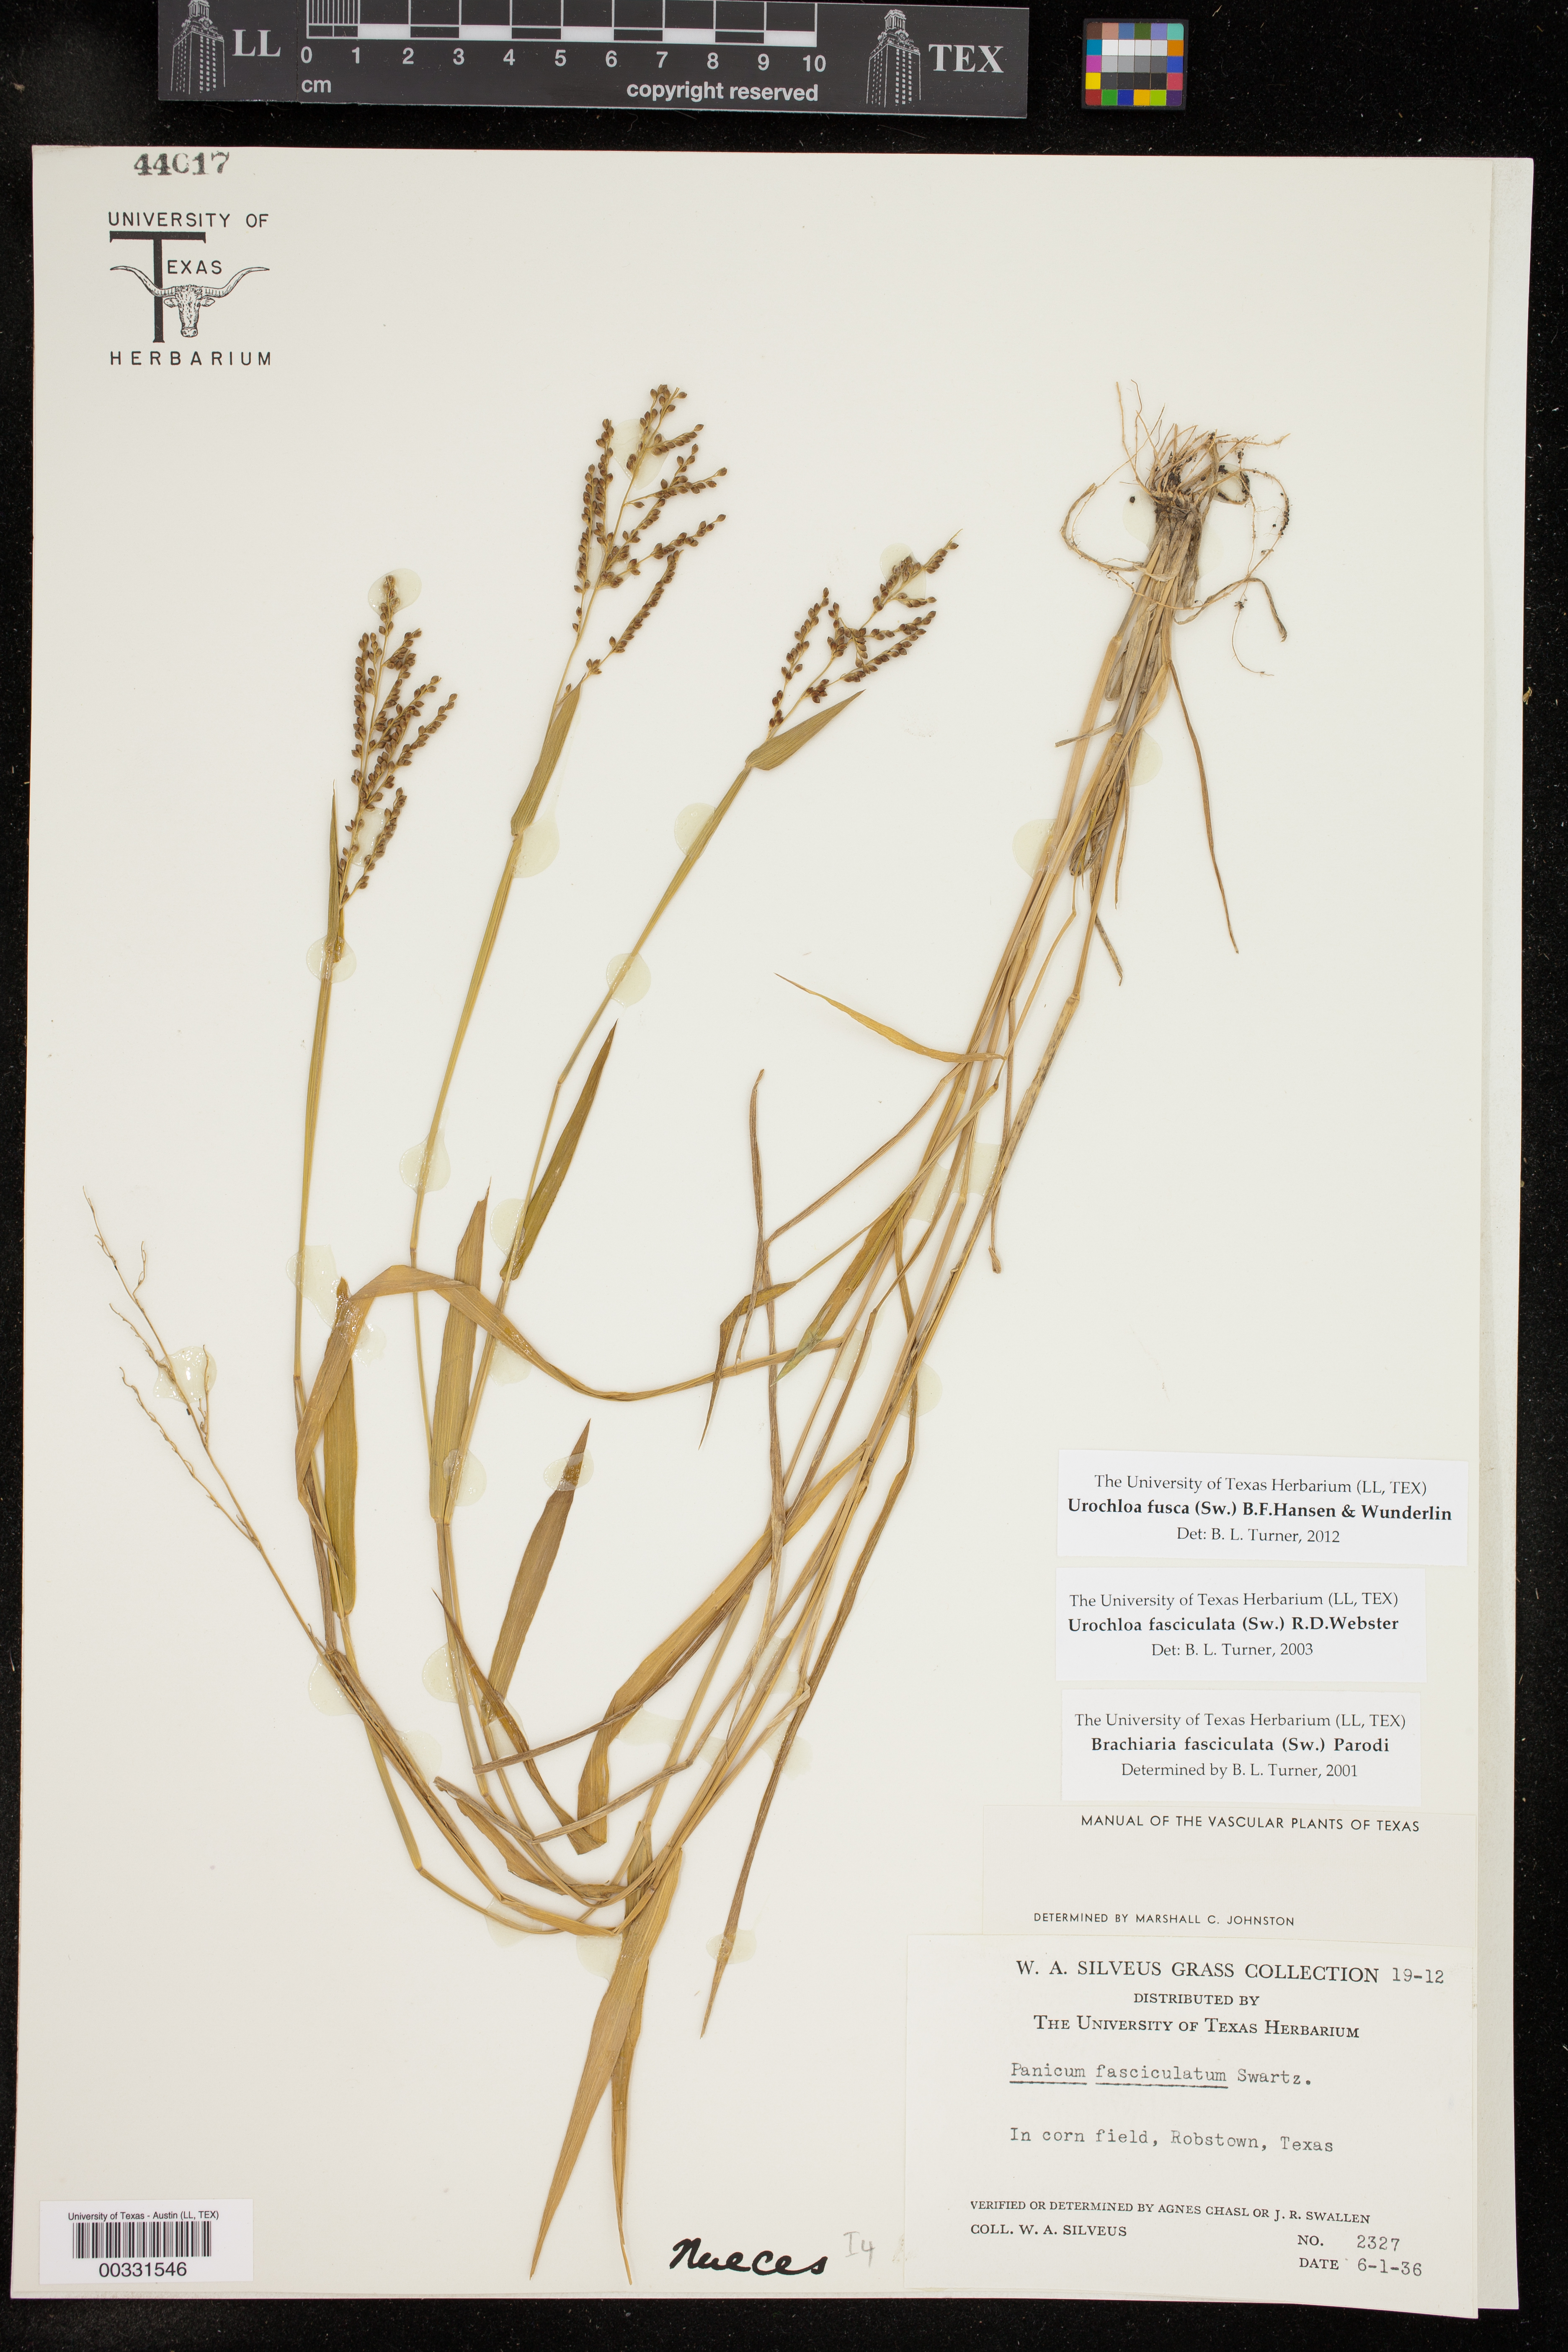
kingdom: Plantae
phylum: Tracheophyta
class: Liliopsida
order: Poales
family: Poaceae
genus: Urochloa
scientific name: Urochloa fusca
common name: Browntop signal grass
